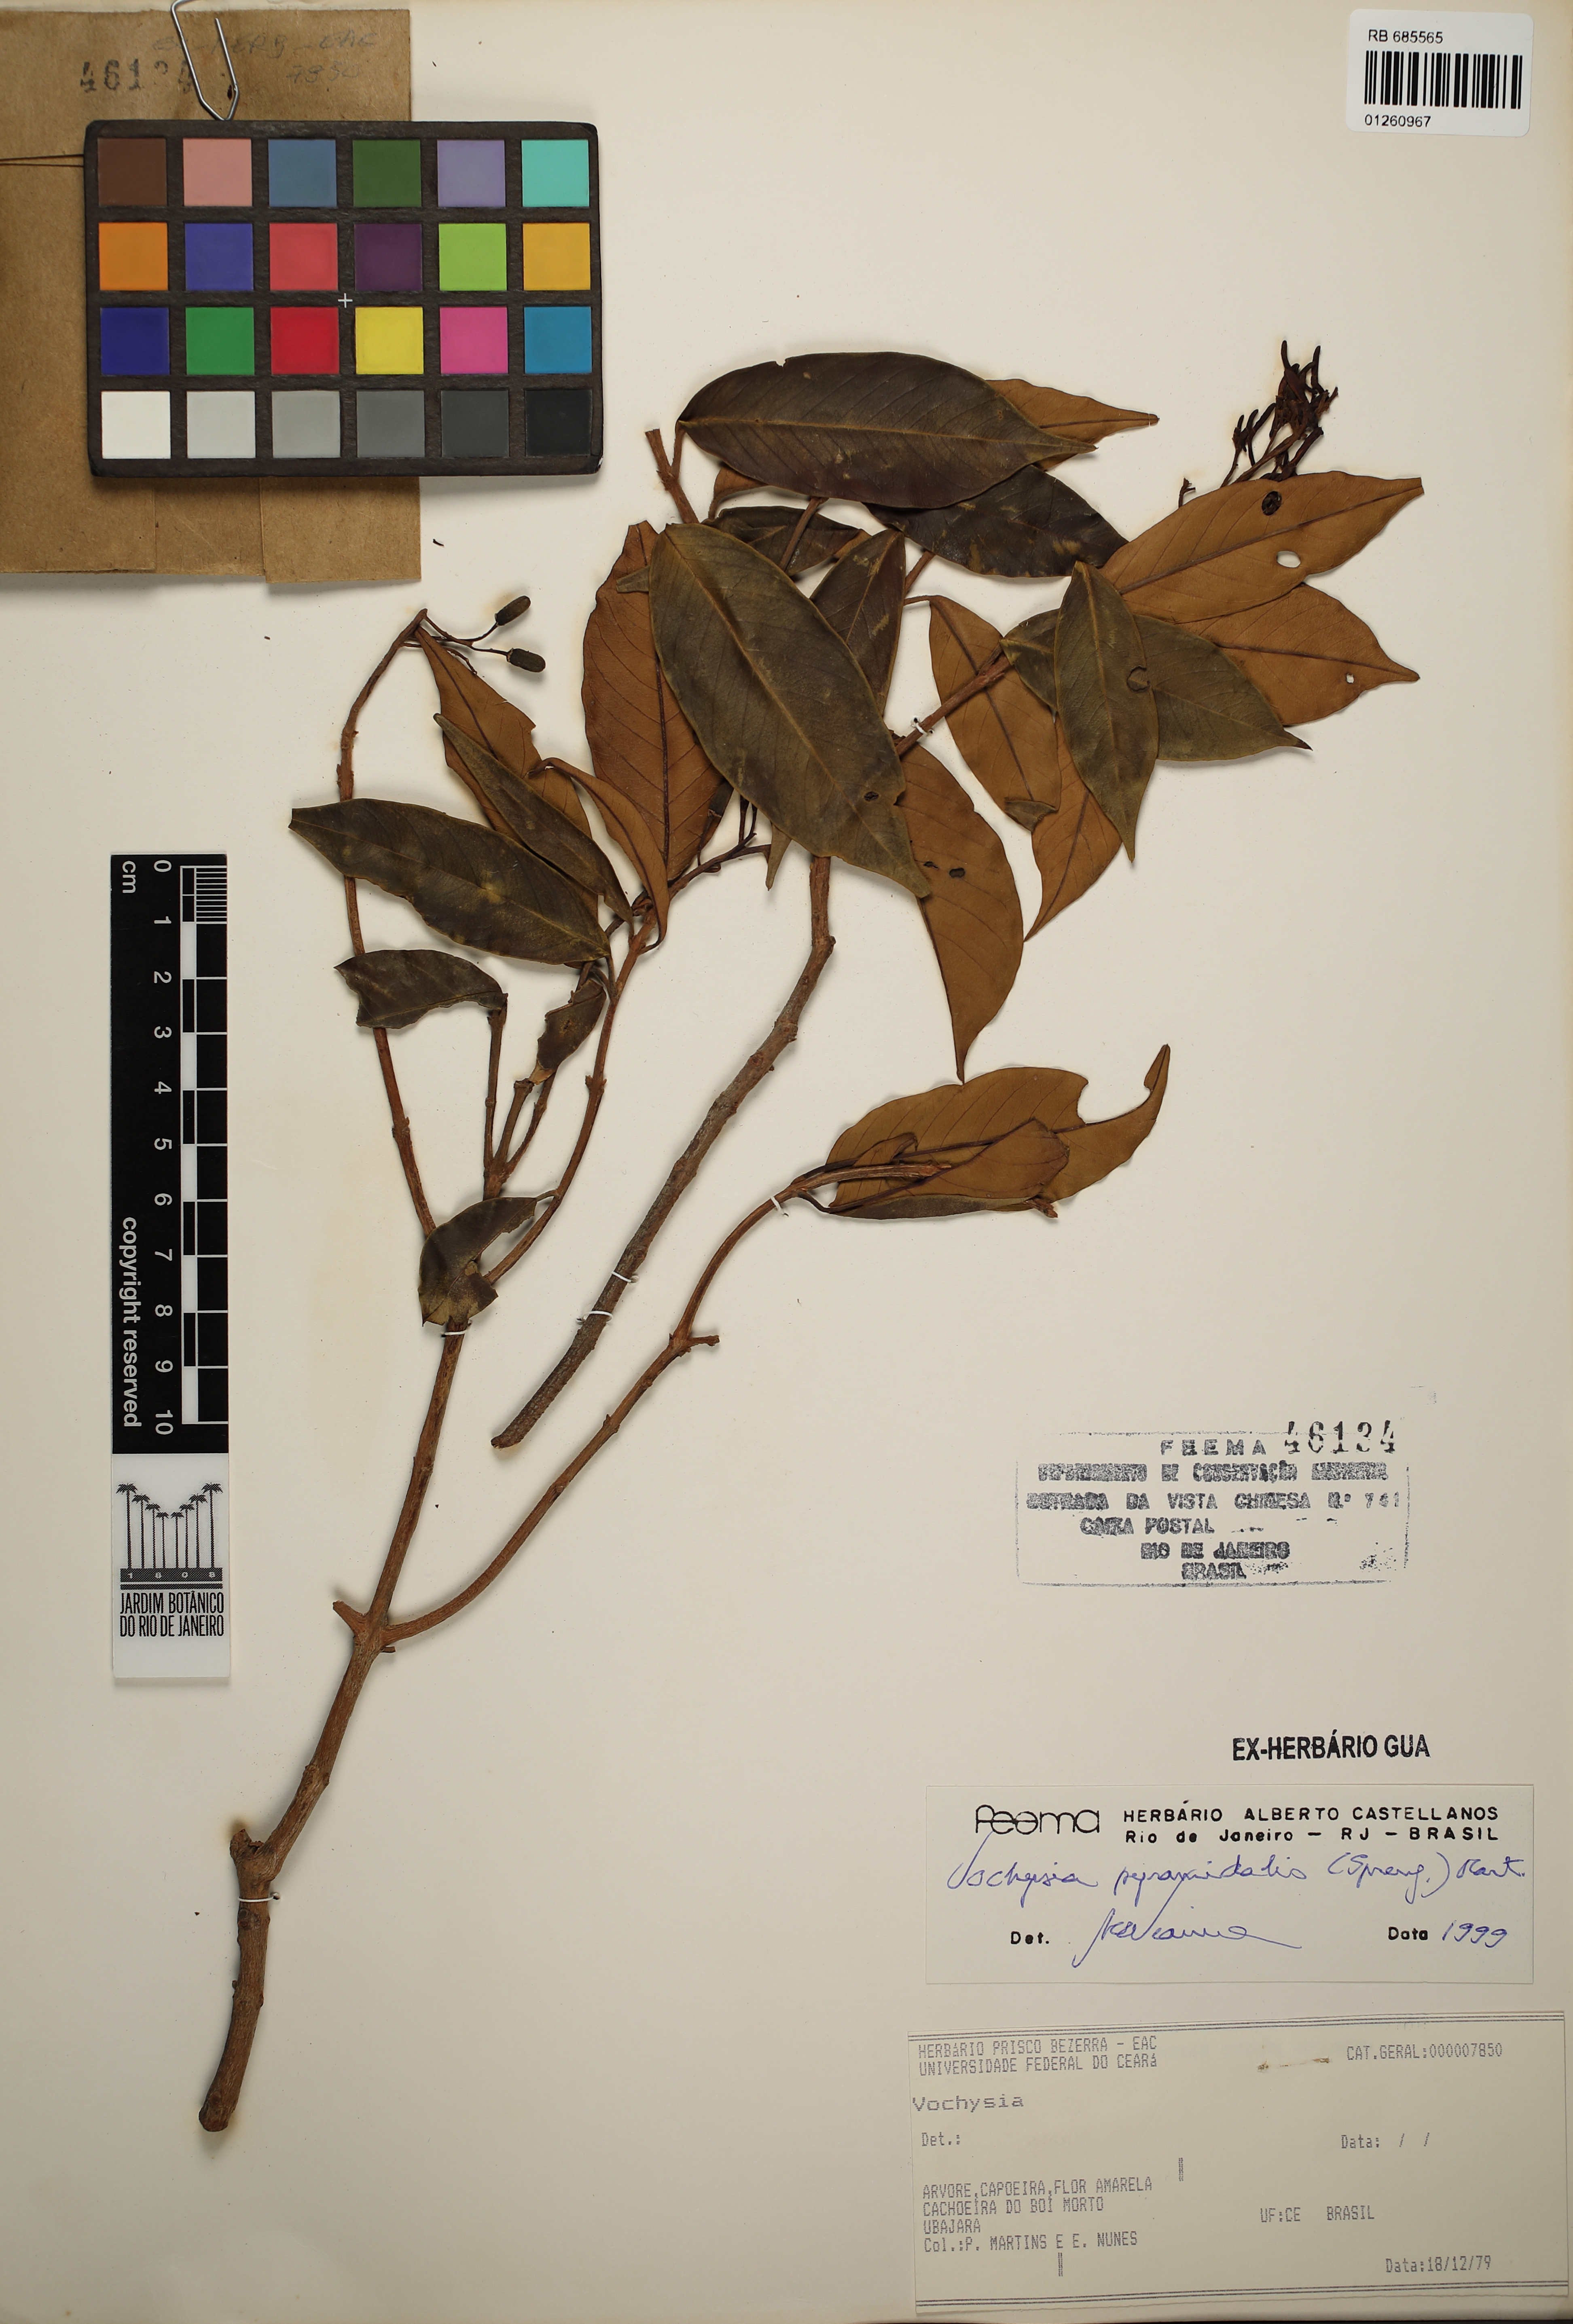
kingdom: Plantae
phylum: Tracheophyta
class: Magnoliopsida
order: Myrtales
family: Vochysiaceae
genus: Vochysia
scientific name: Vochysia pyramidalis
